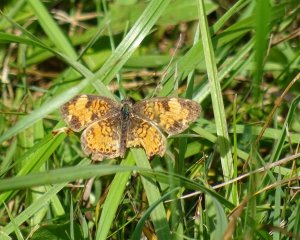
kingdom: Animalia
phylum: Arthropoda
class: Insecta
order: Lepidoptera
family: Nymphalidae
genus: Phyciodes
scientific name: Phyciodes tharos
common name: Northern Crescent
